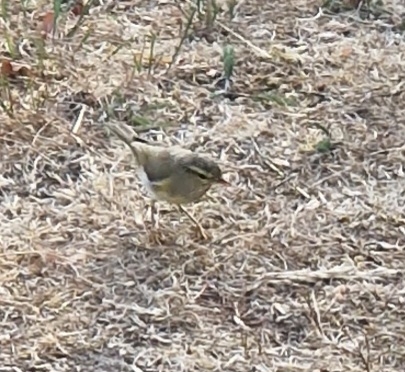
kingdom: Animalia
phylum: Chordata
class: Aves
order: Passeriformes
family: Phylloscopidae
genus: Phylloscopus
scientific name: Phylloscopus trochilus
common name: Løvsanger
